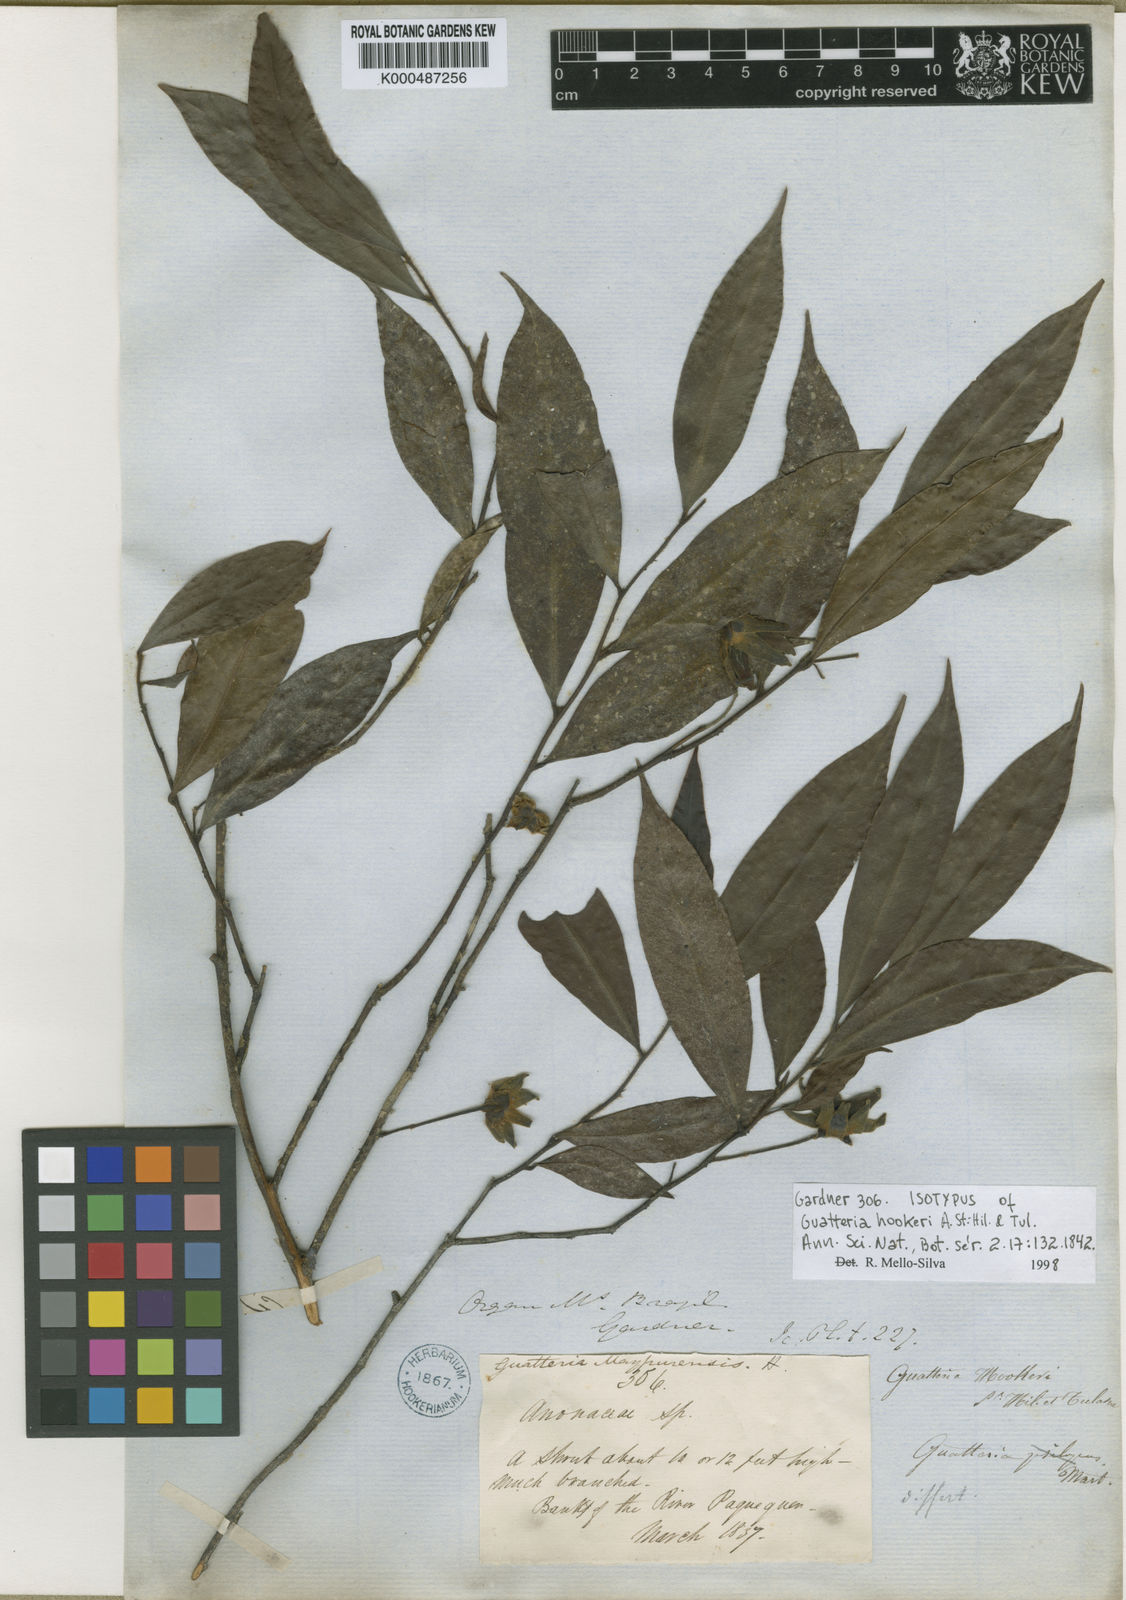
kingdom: Plantae
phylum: Tracheophyta
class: Magnoliopsida
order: Magnoliales
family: Annonaceae
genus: Guatteria
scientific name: Guatteria australis
